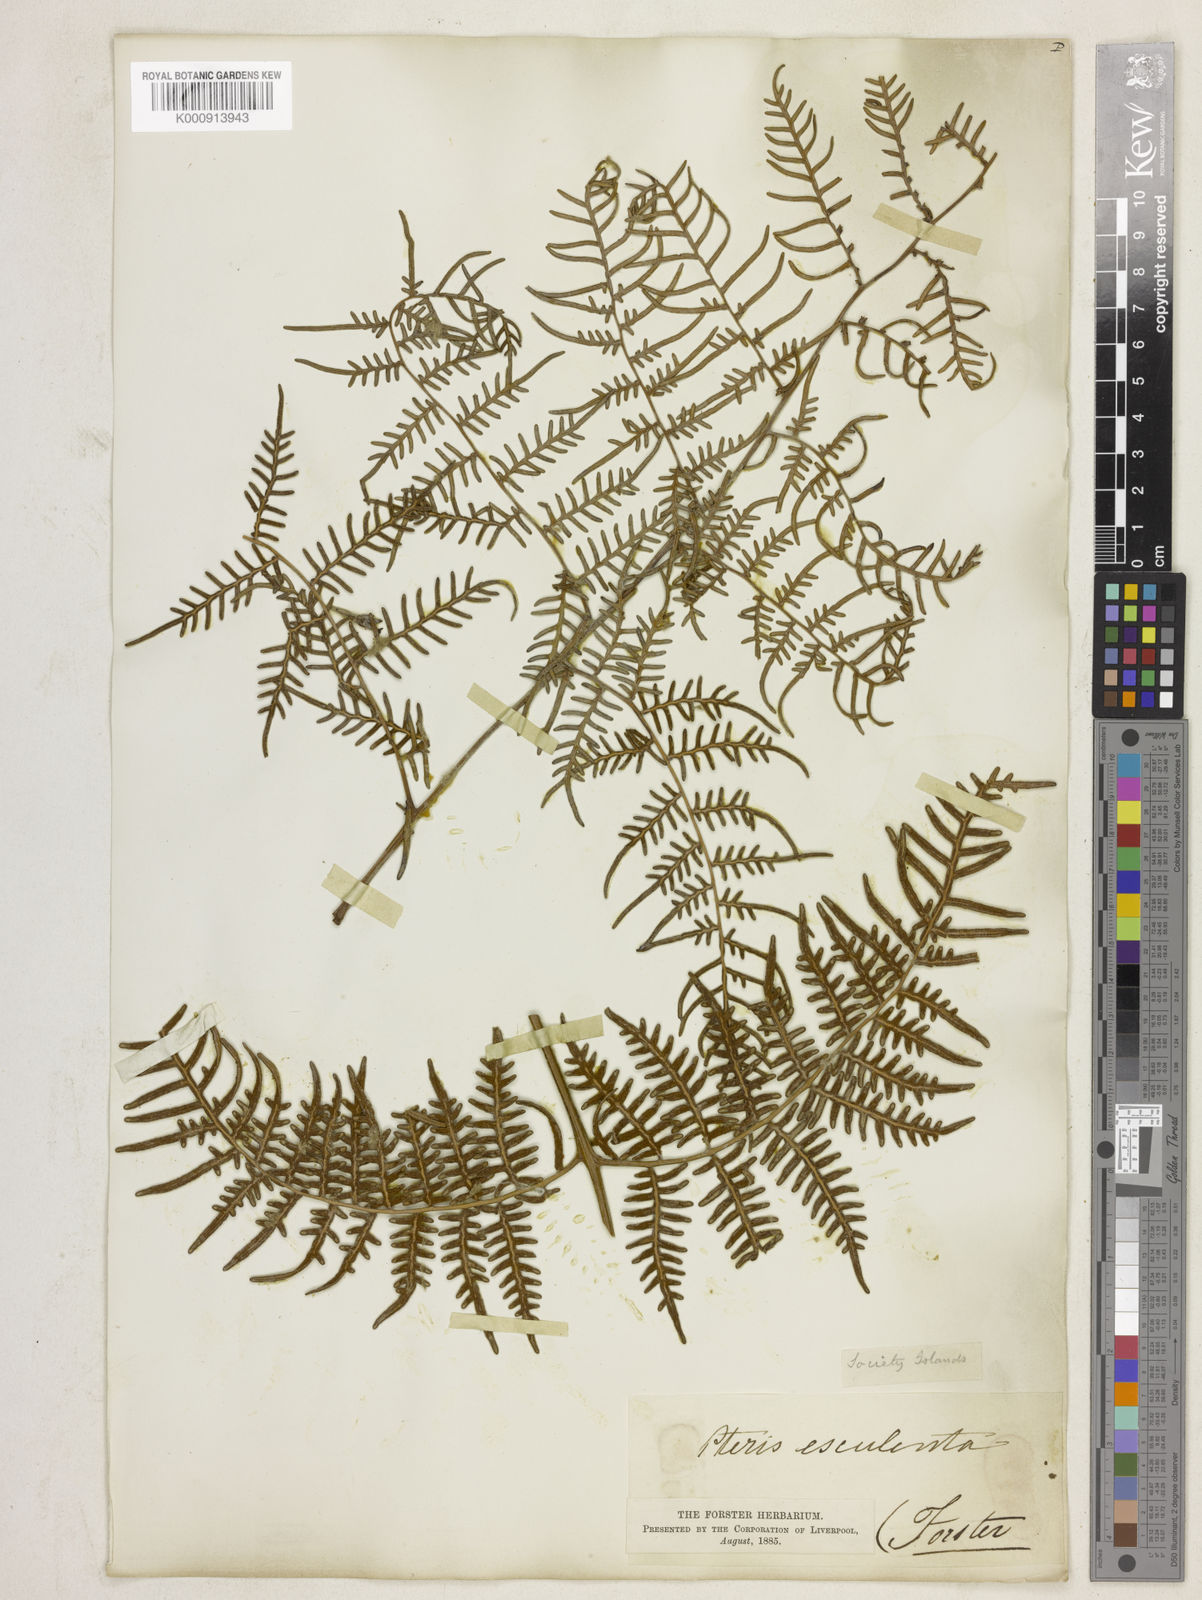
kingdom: Plantae
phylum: Tracheophyta
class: Polypodiopsida
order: Polypodiales
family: Dennstaedtiaceae
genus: Pteridium
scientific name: Pteridium esculentum
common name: Bracken fern
